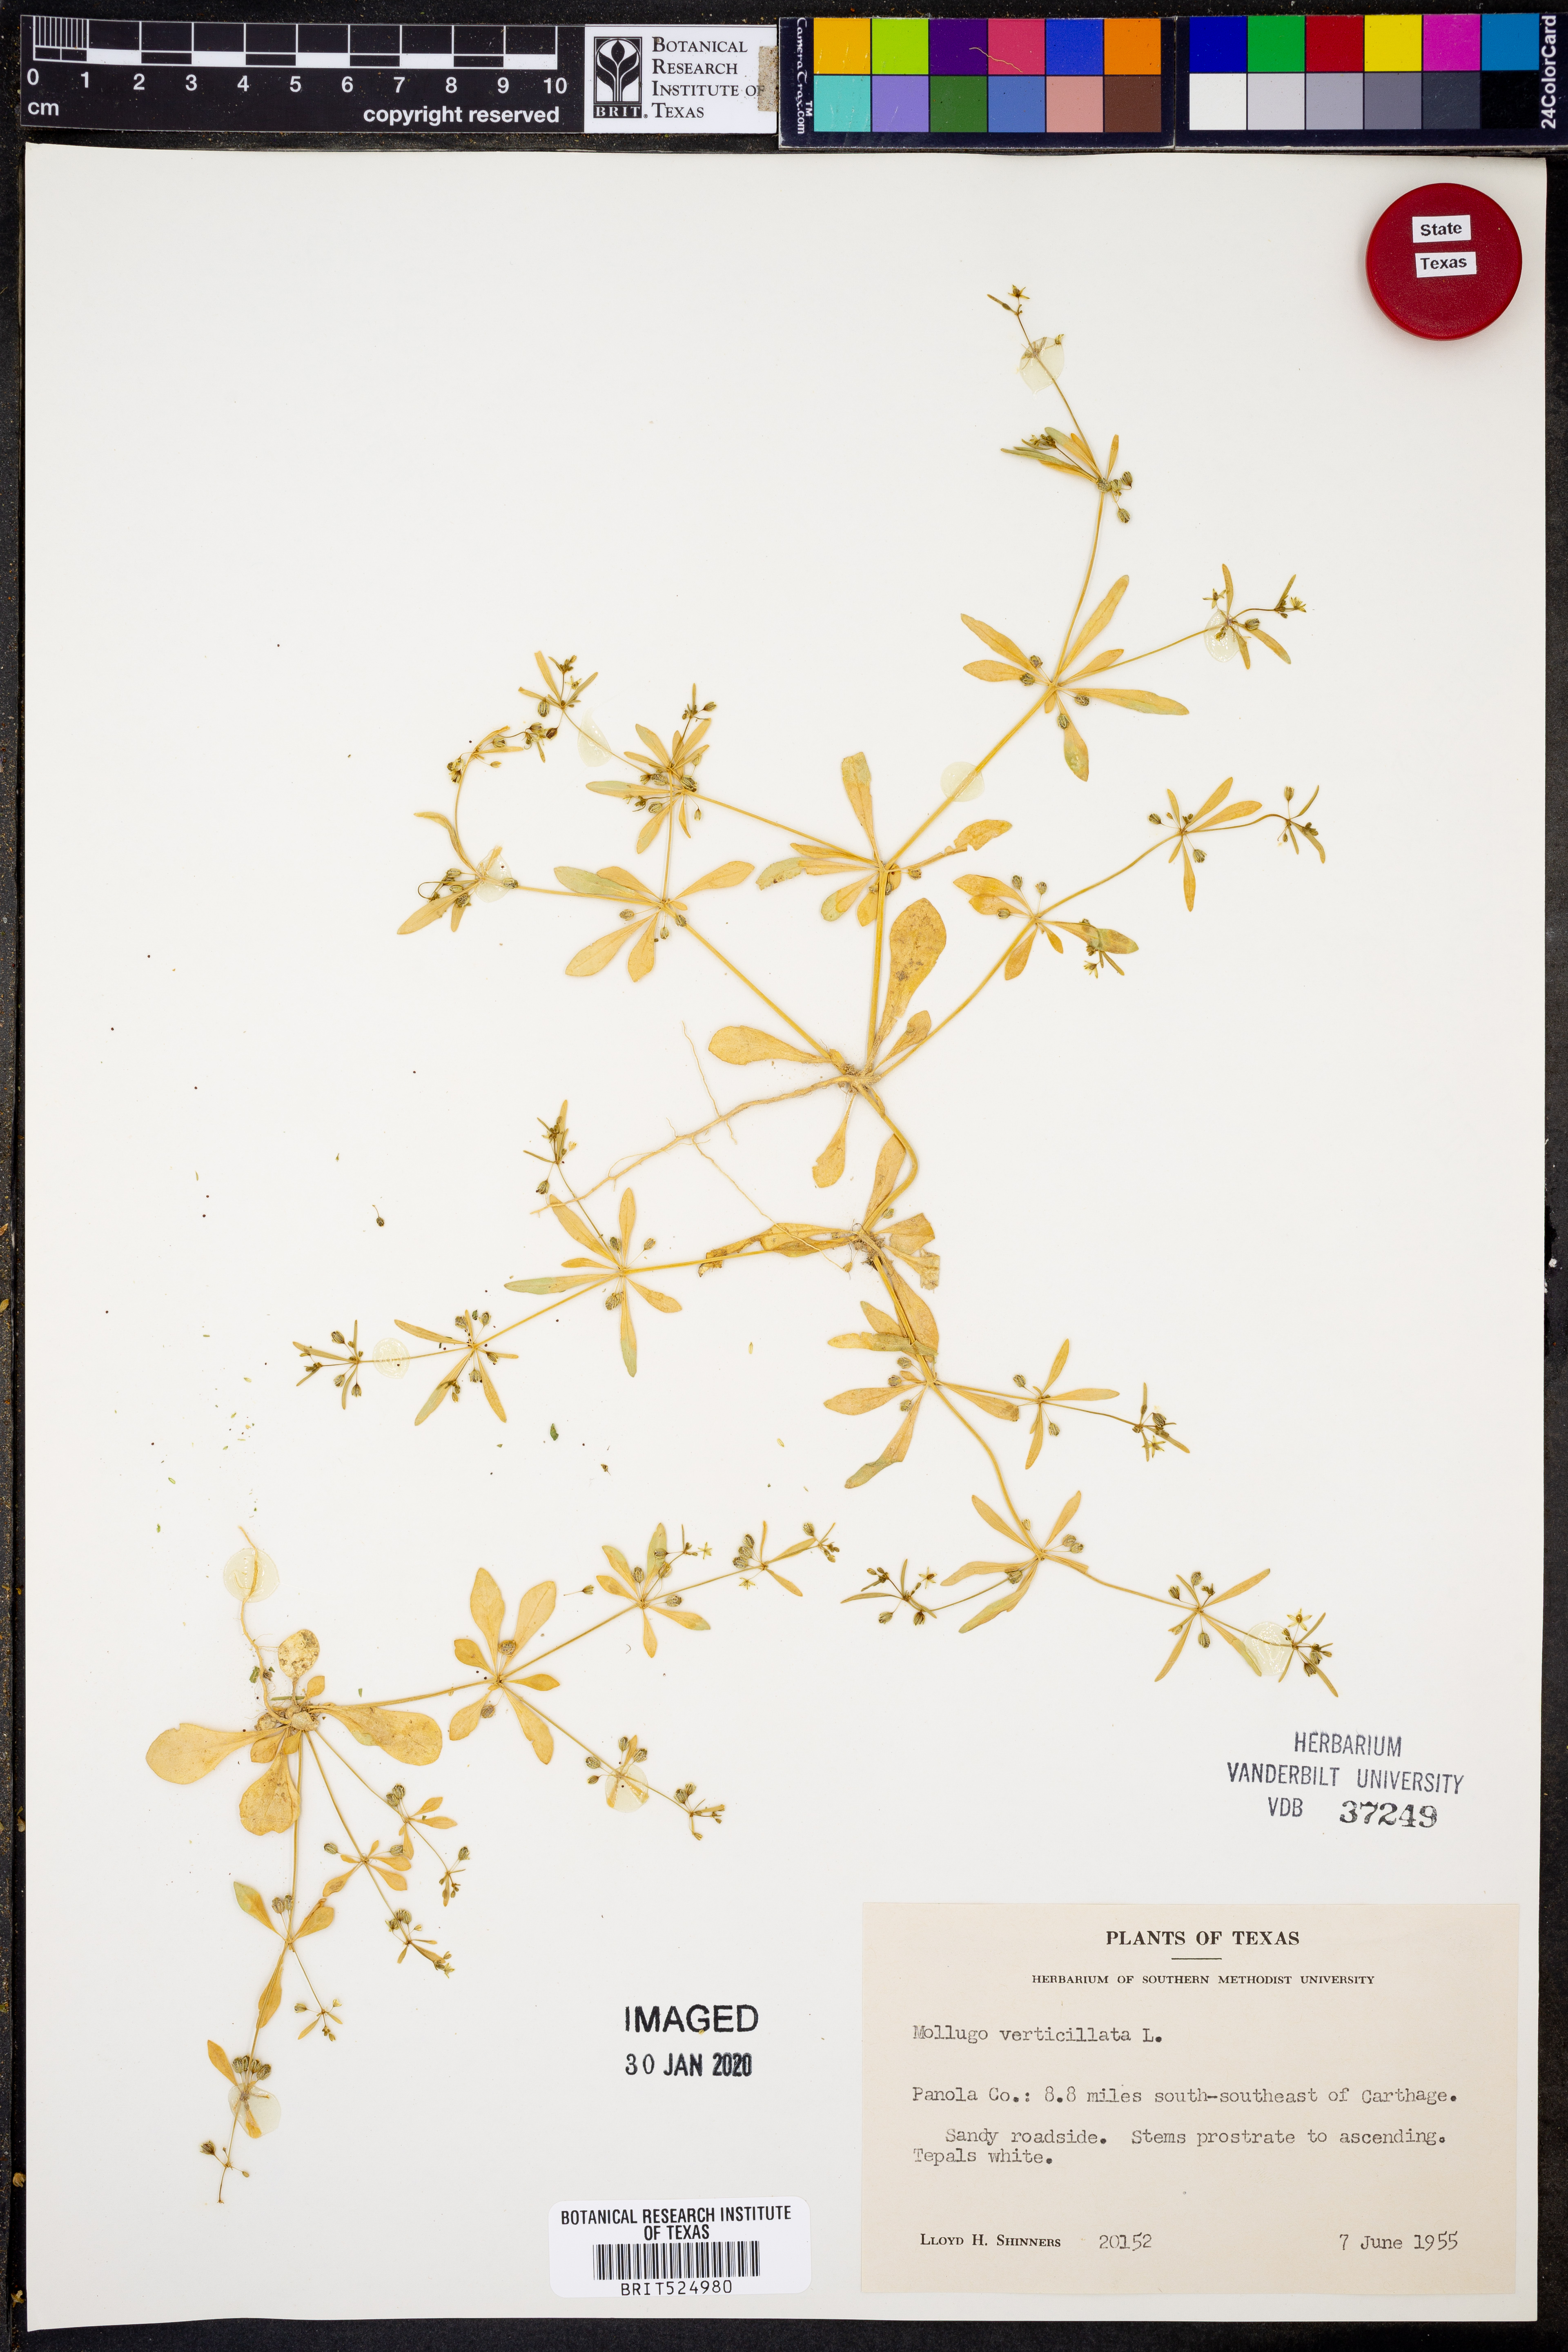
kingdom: Plantae
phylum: Tracheophyta
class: Magnoliopsida
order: Caryophyllales
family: Molluginaceae
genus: Mollugo
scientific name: Mollugo verticillata
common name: Green carpetweed
